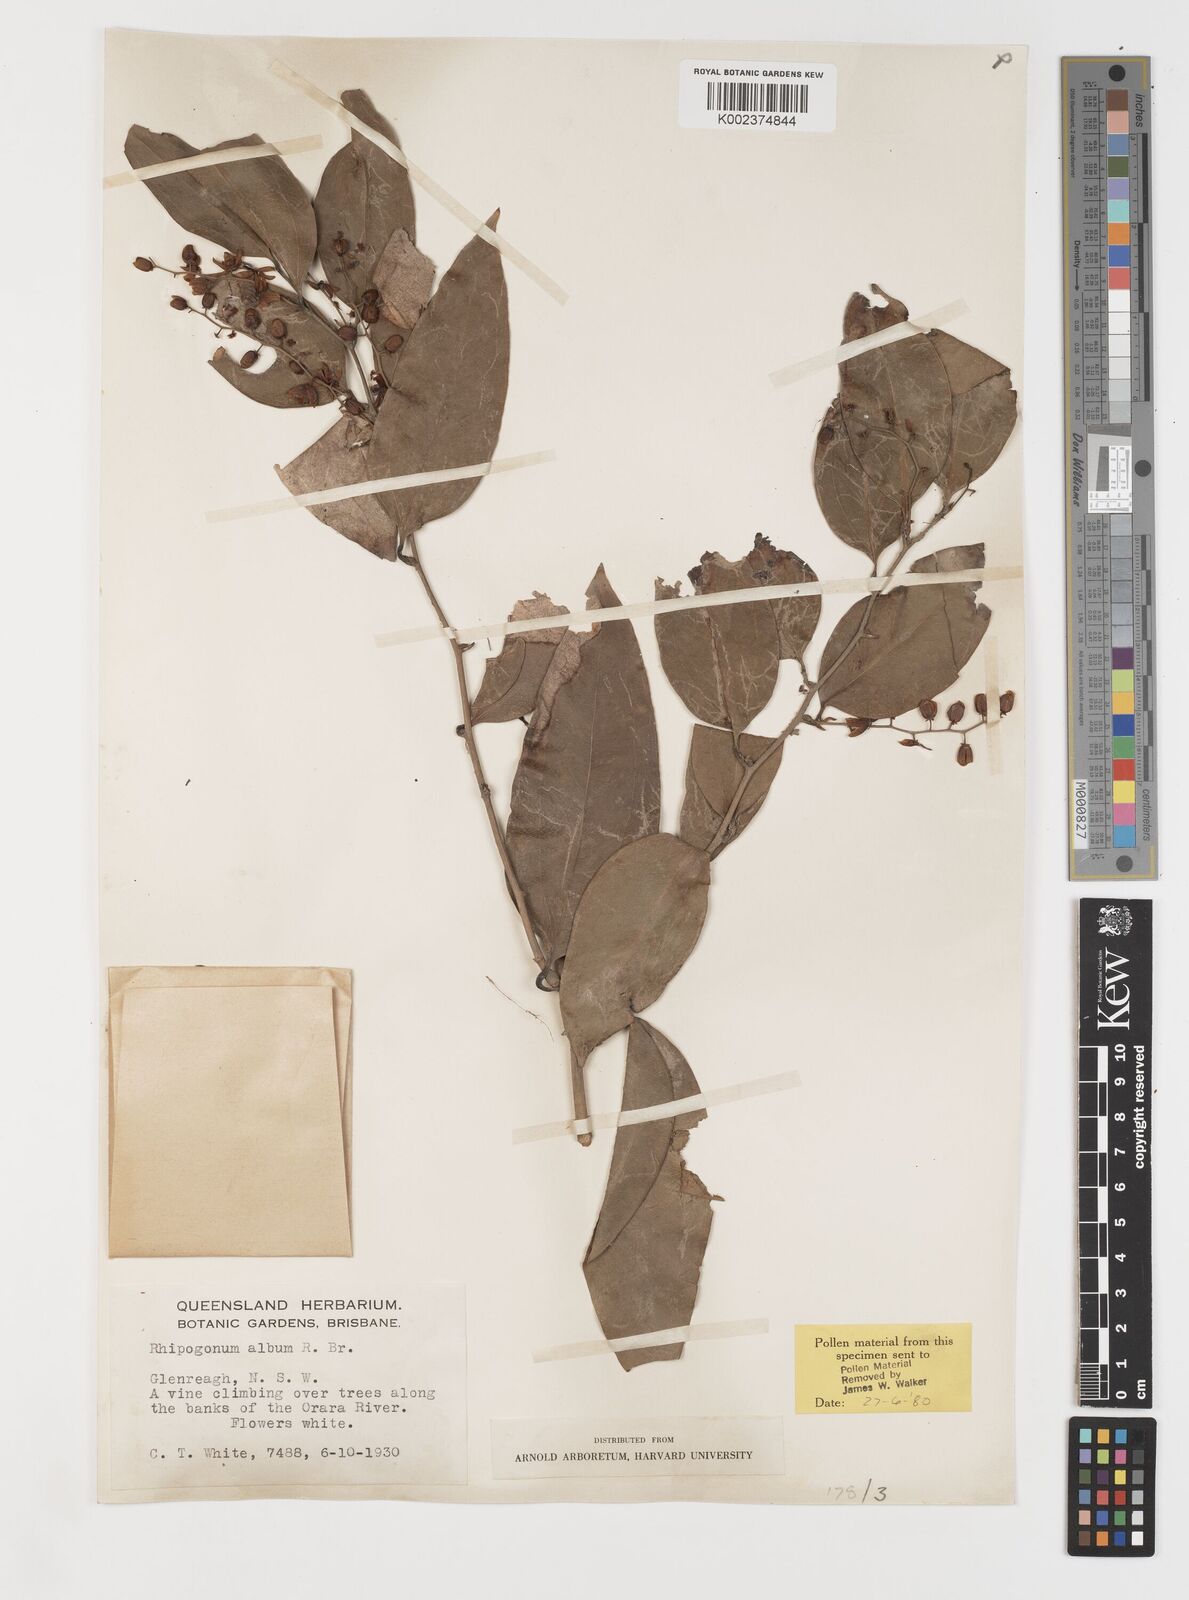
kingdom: Plantae
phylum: Tracheophyta
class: Liliopsida
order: Liliales
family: Ripogonaceae
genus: Ripogonum
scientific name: Ripogonum album
